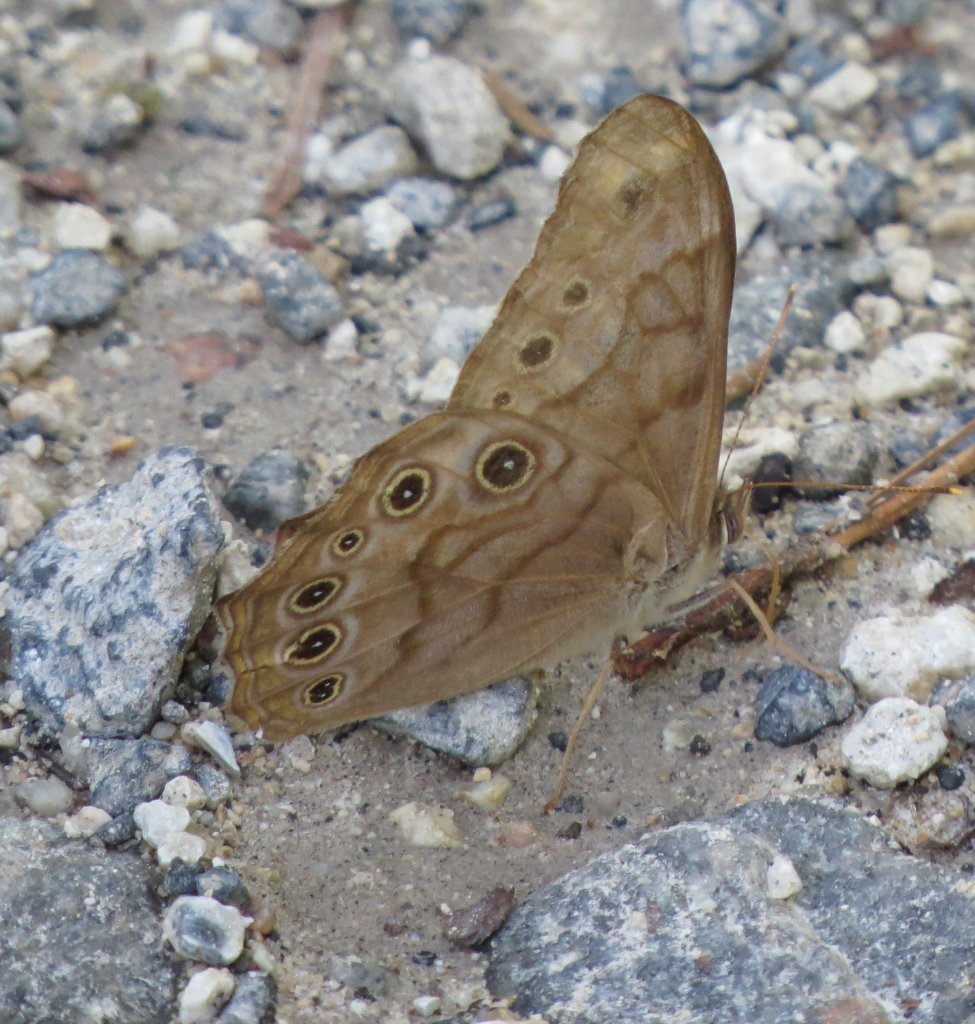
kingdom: Animalia
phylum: Arthropoda
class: Insecta
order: Lepidoptera
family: Nymphalidae
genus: Lethe
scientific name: Lethe creola
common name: Creole Pearly-Eye
